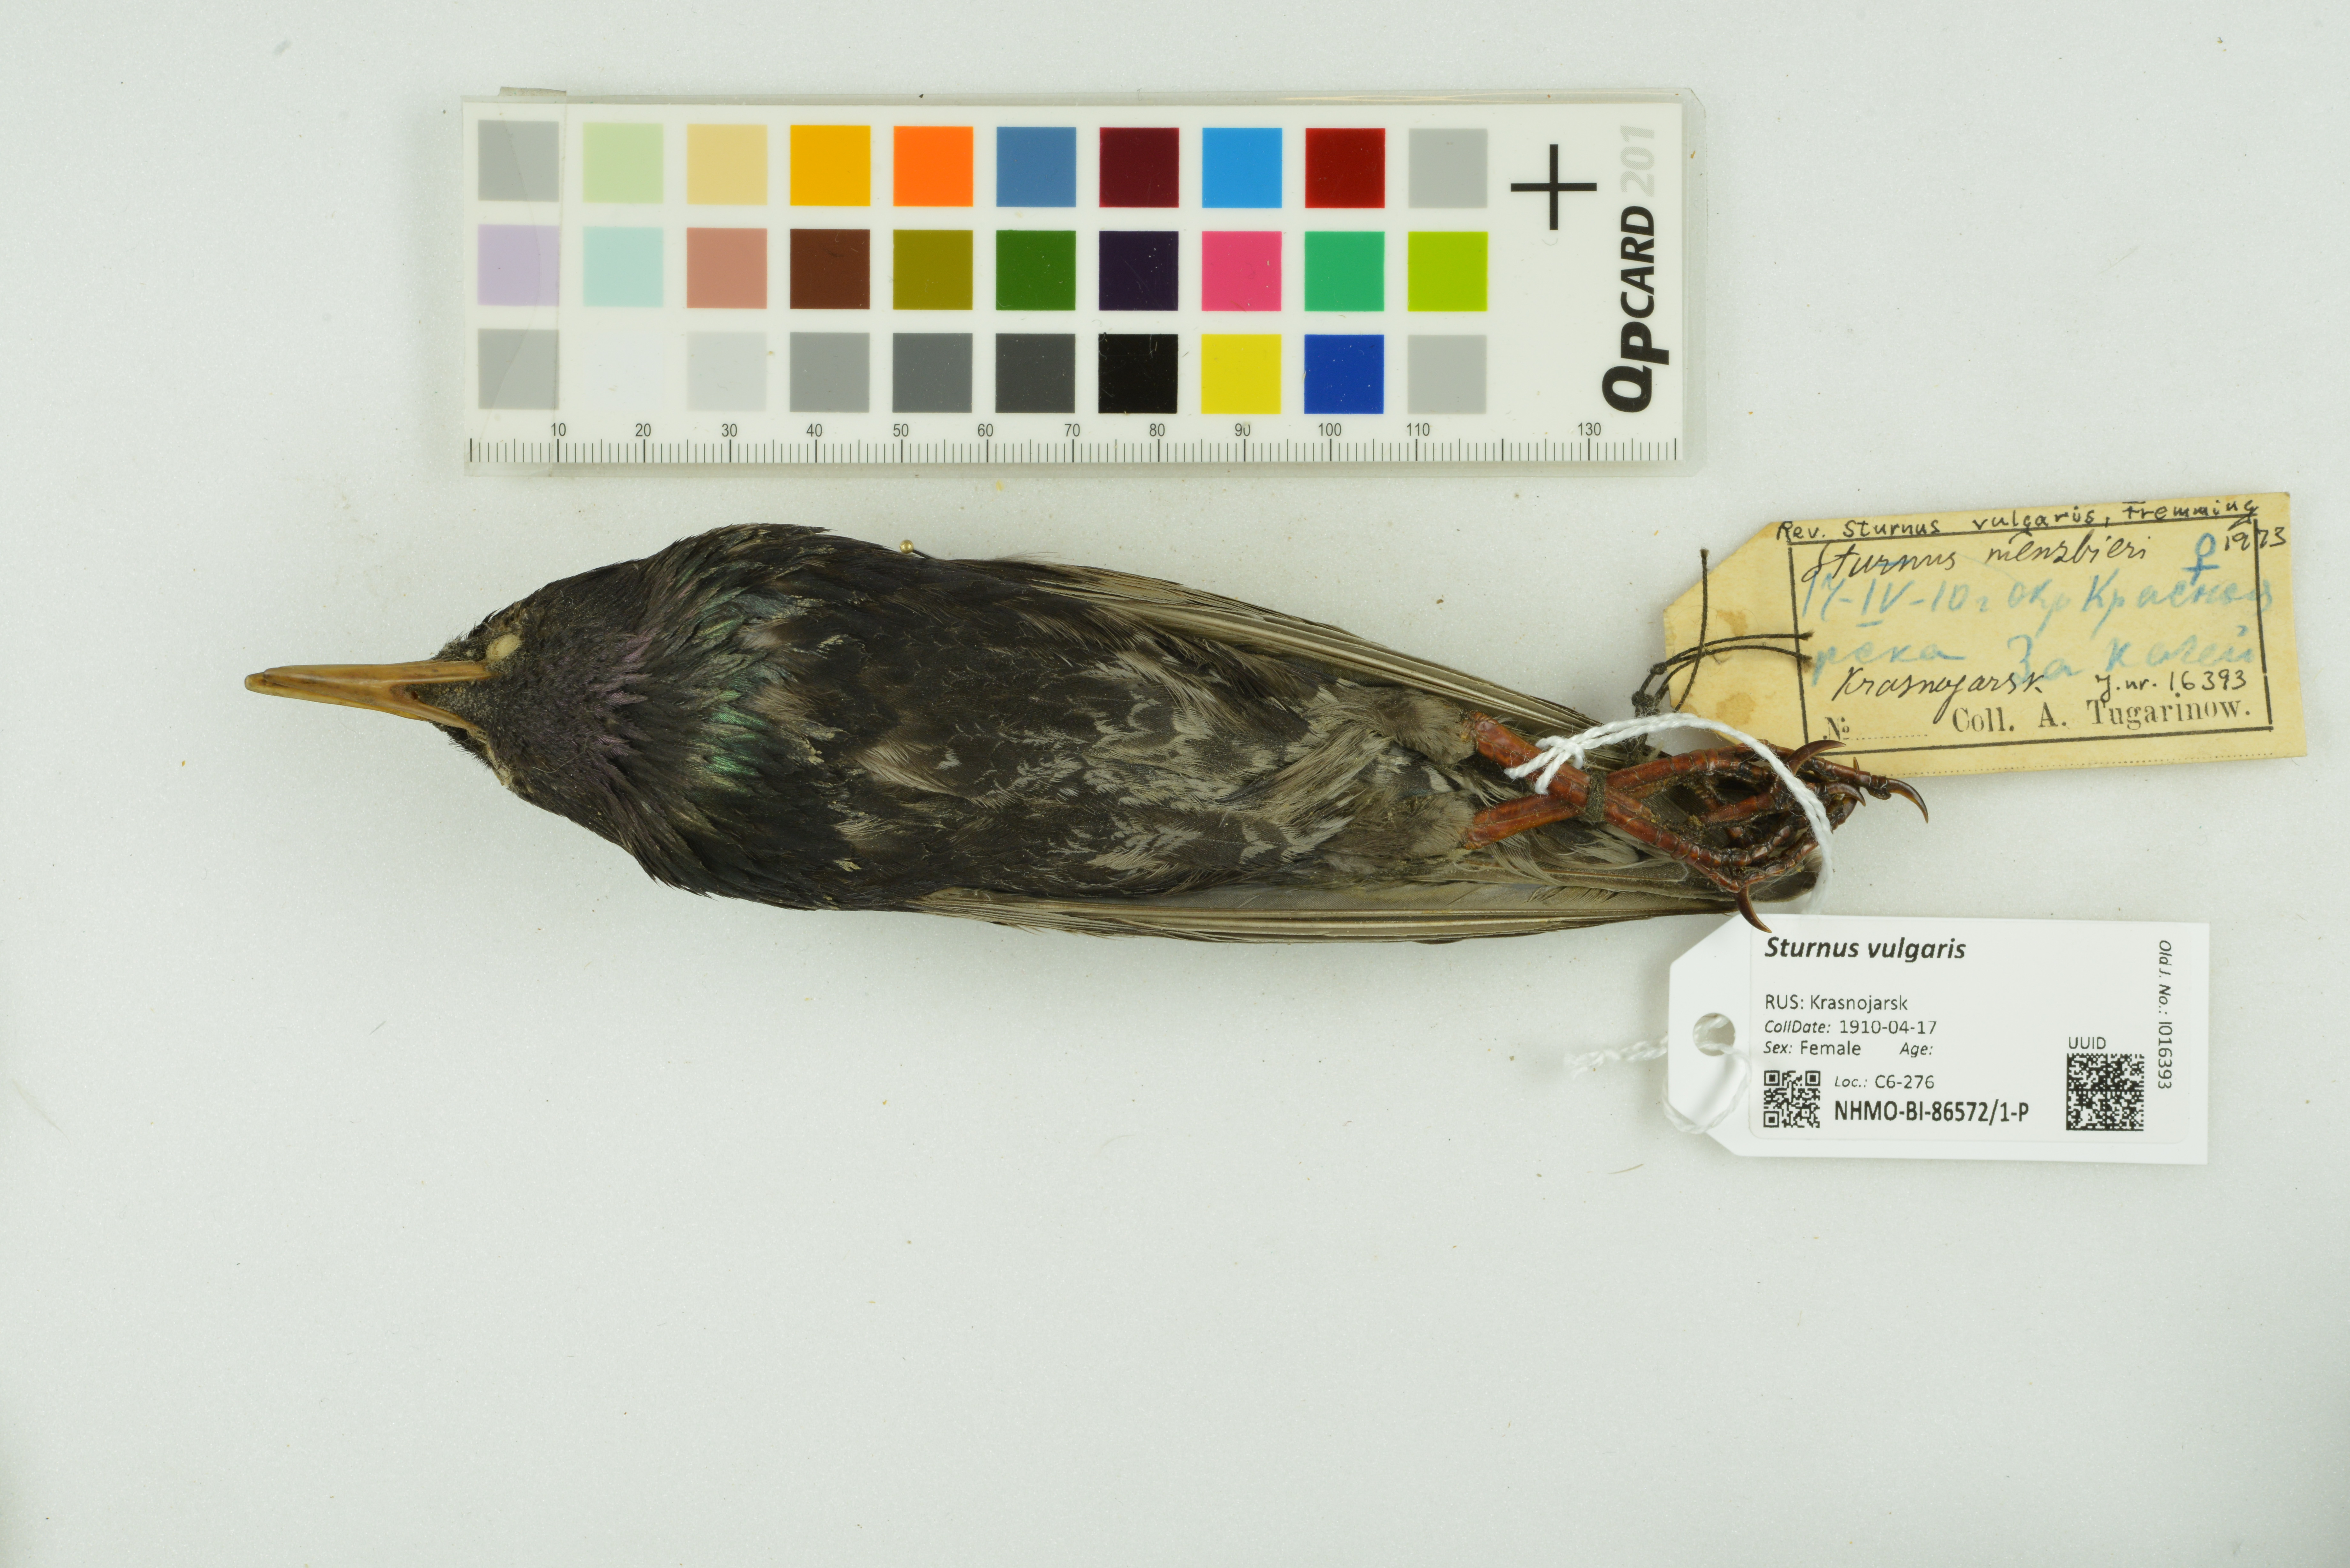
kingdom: Animalia
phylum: Chordata
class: Aves
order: Passeriformes
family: Sturnidae
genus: Sturnus
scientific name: Sturnus vulgaris
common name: Common starling
